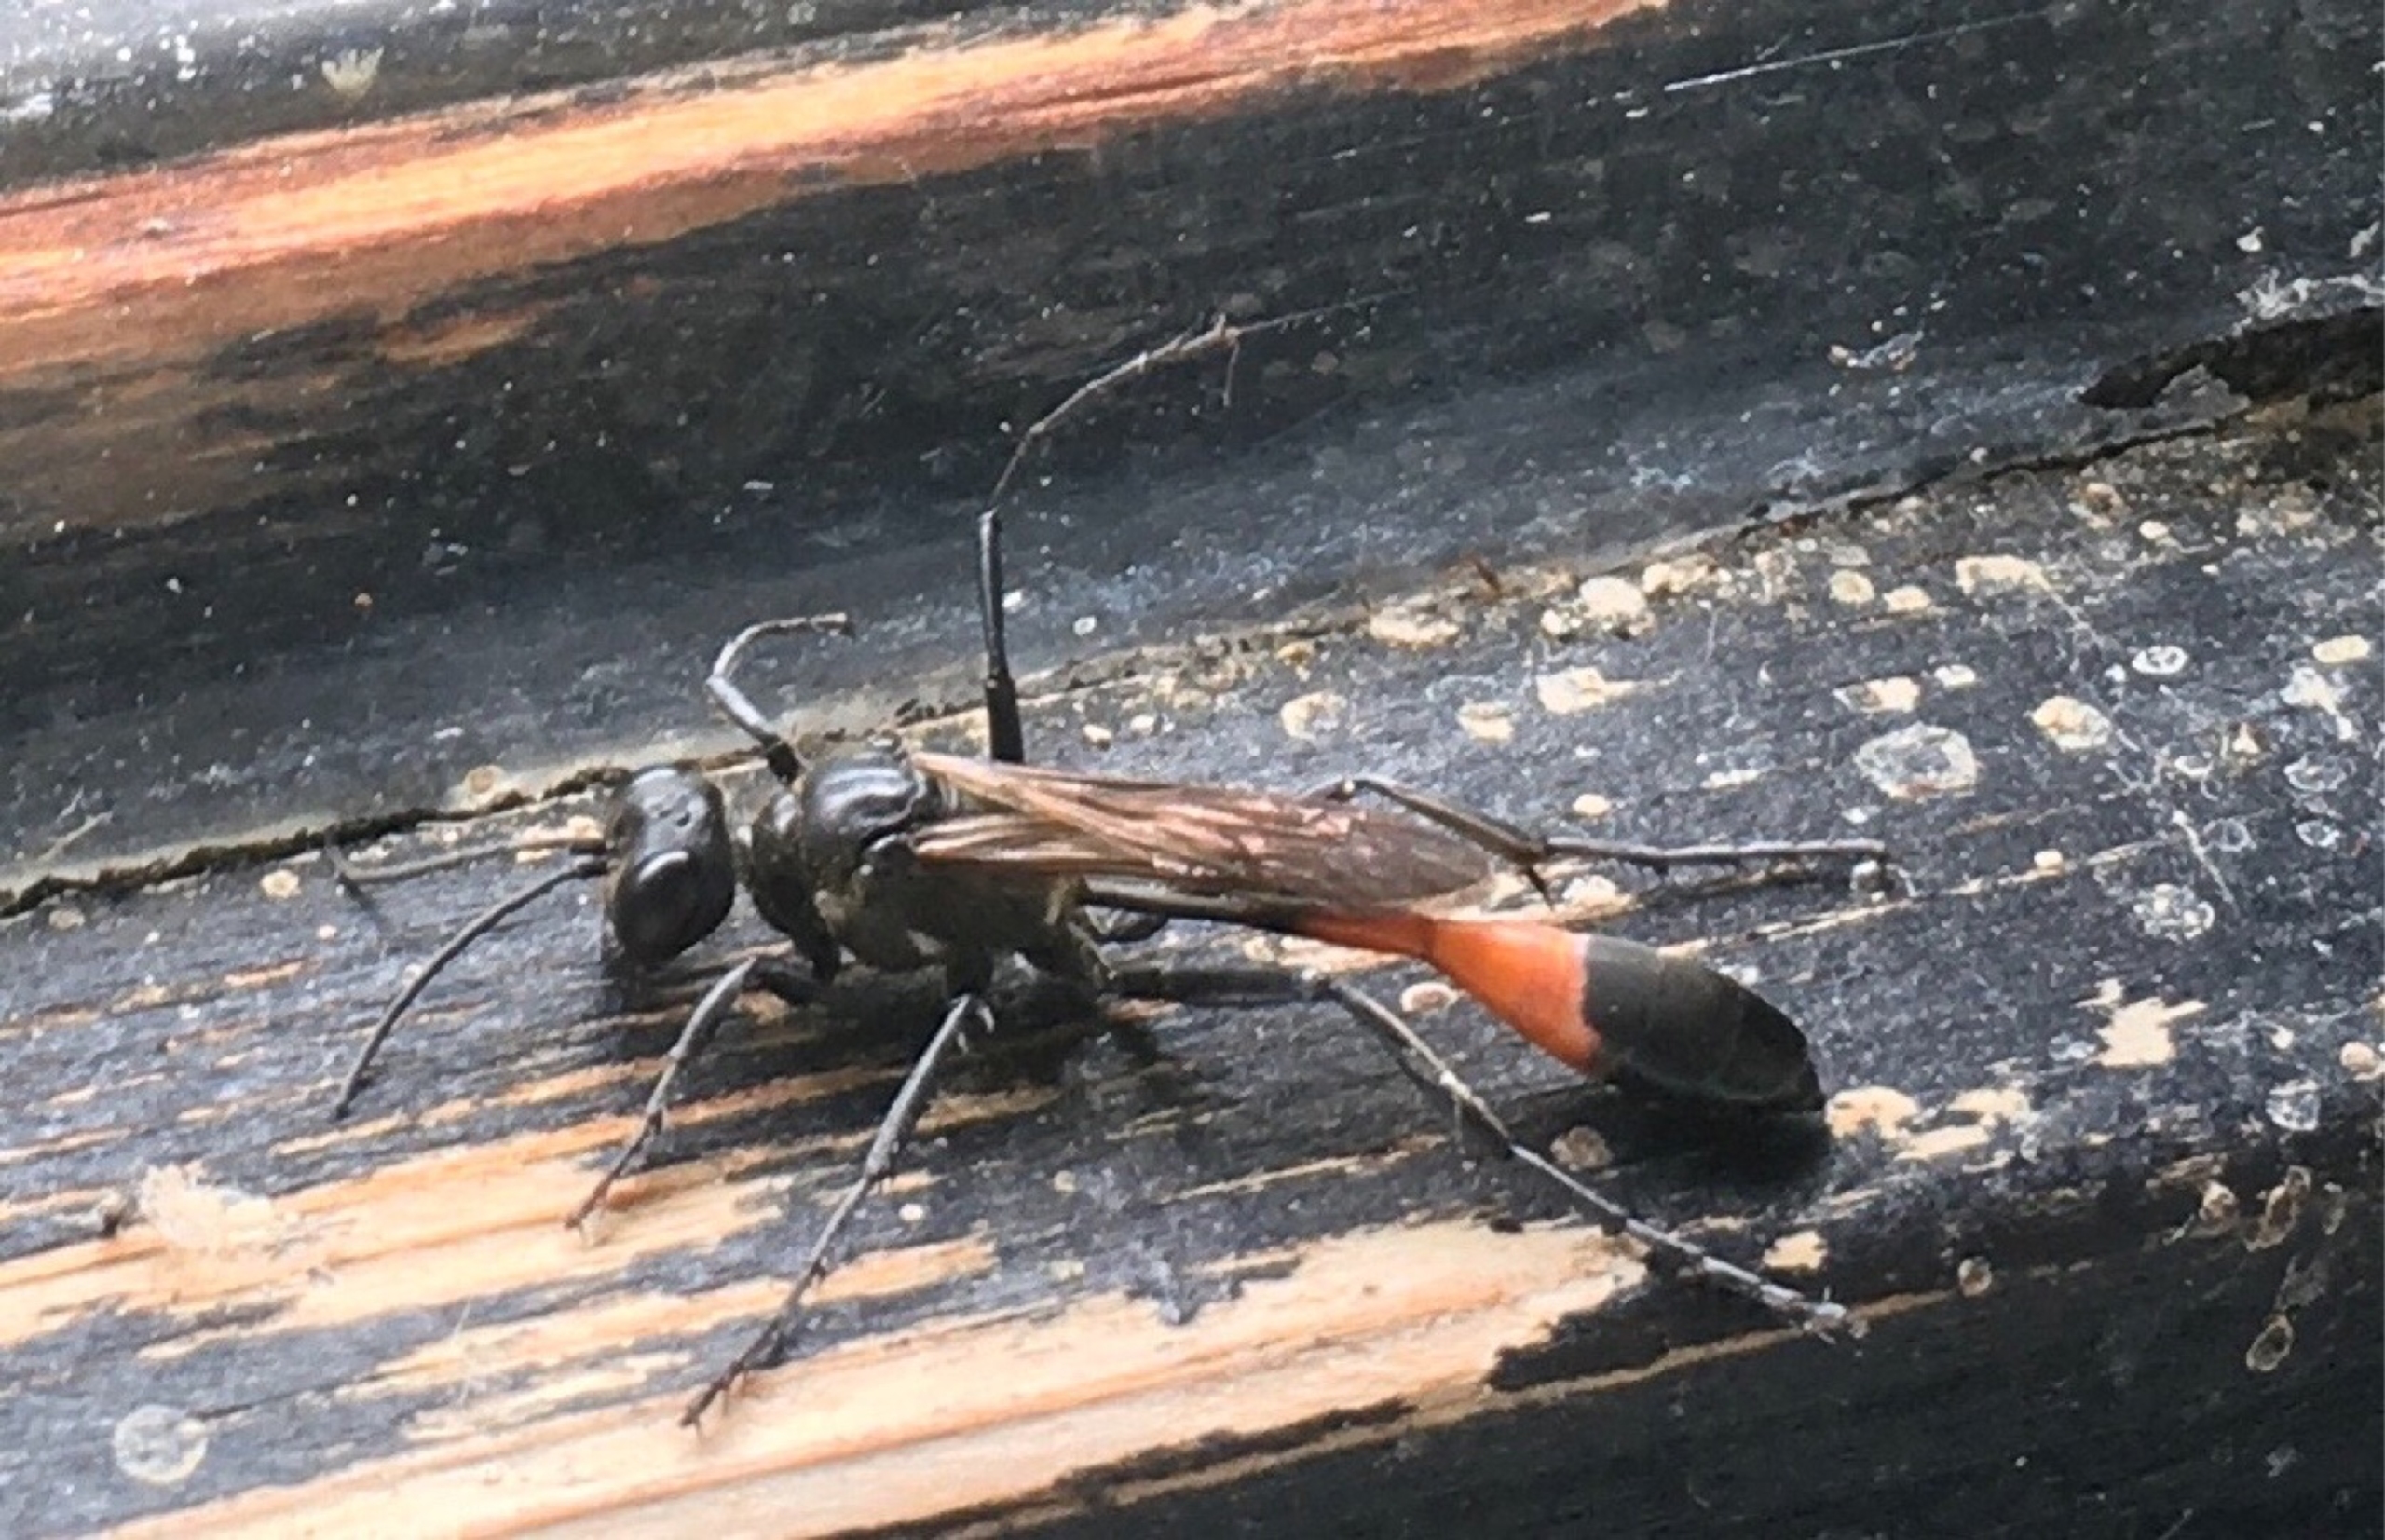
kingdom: Animalia
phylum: Arthropoda
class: Insecta
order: Hymenoptera
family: Sphecidae
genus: Ammophila
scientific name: Ammophila
